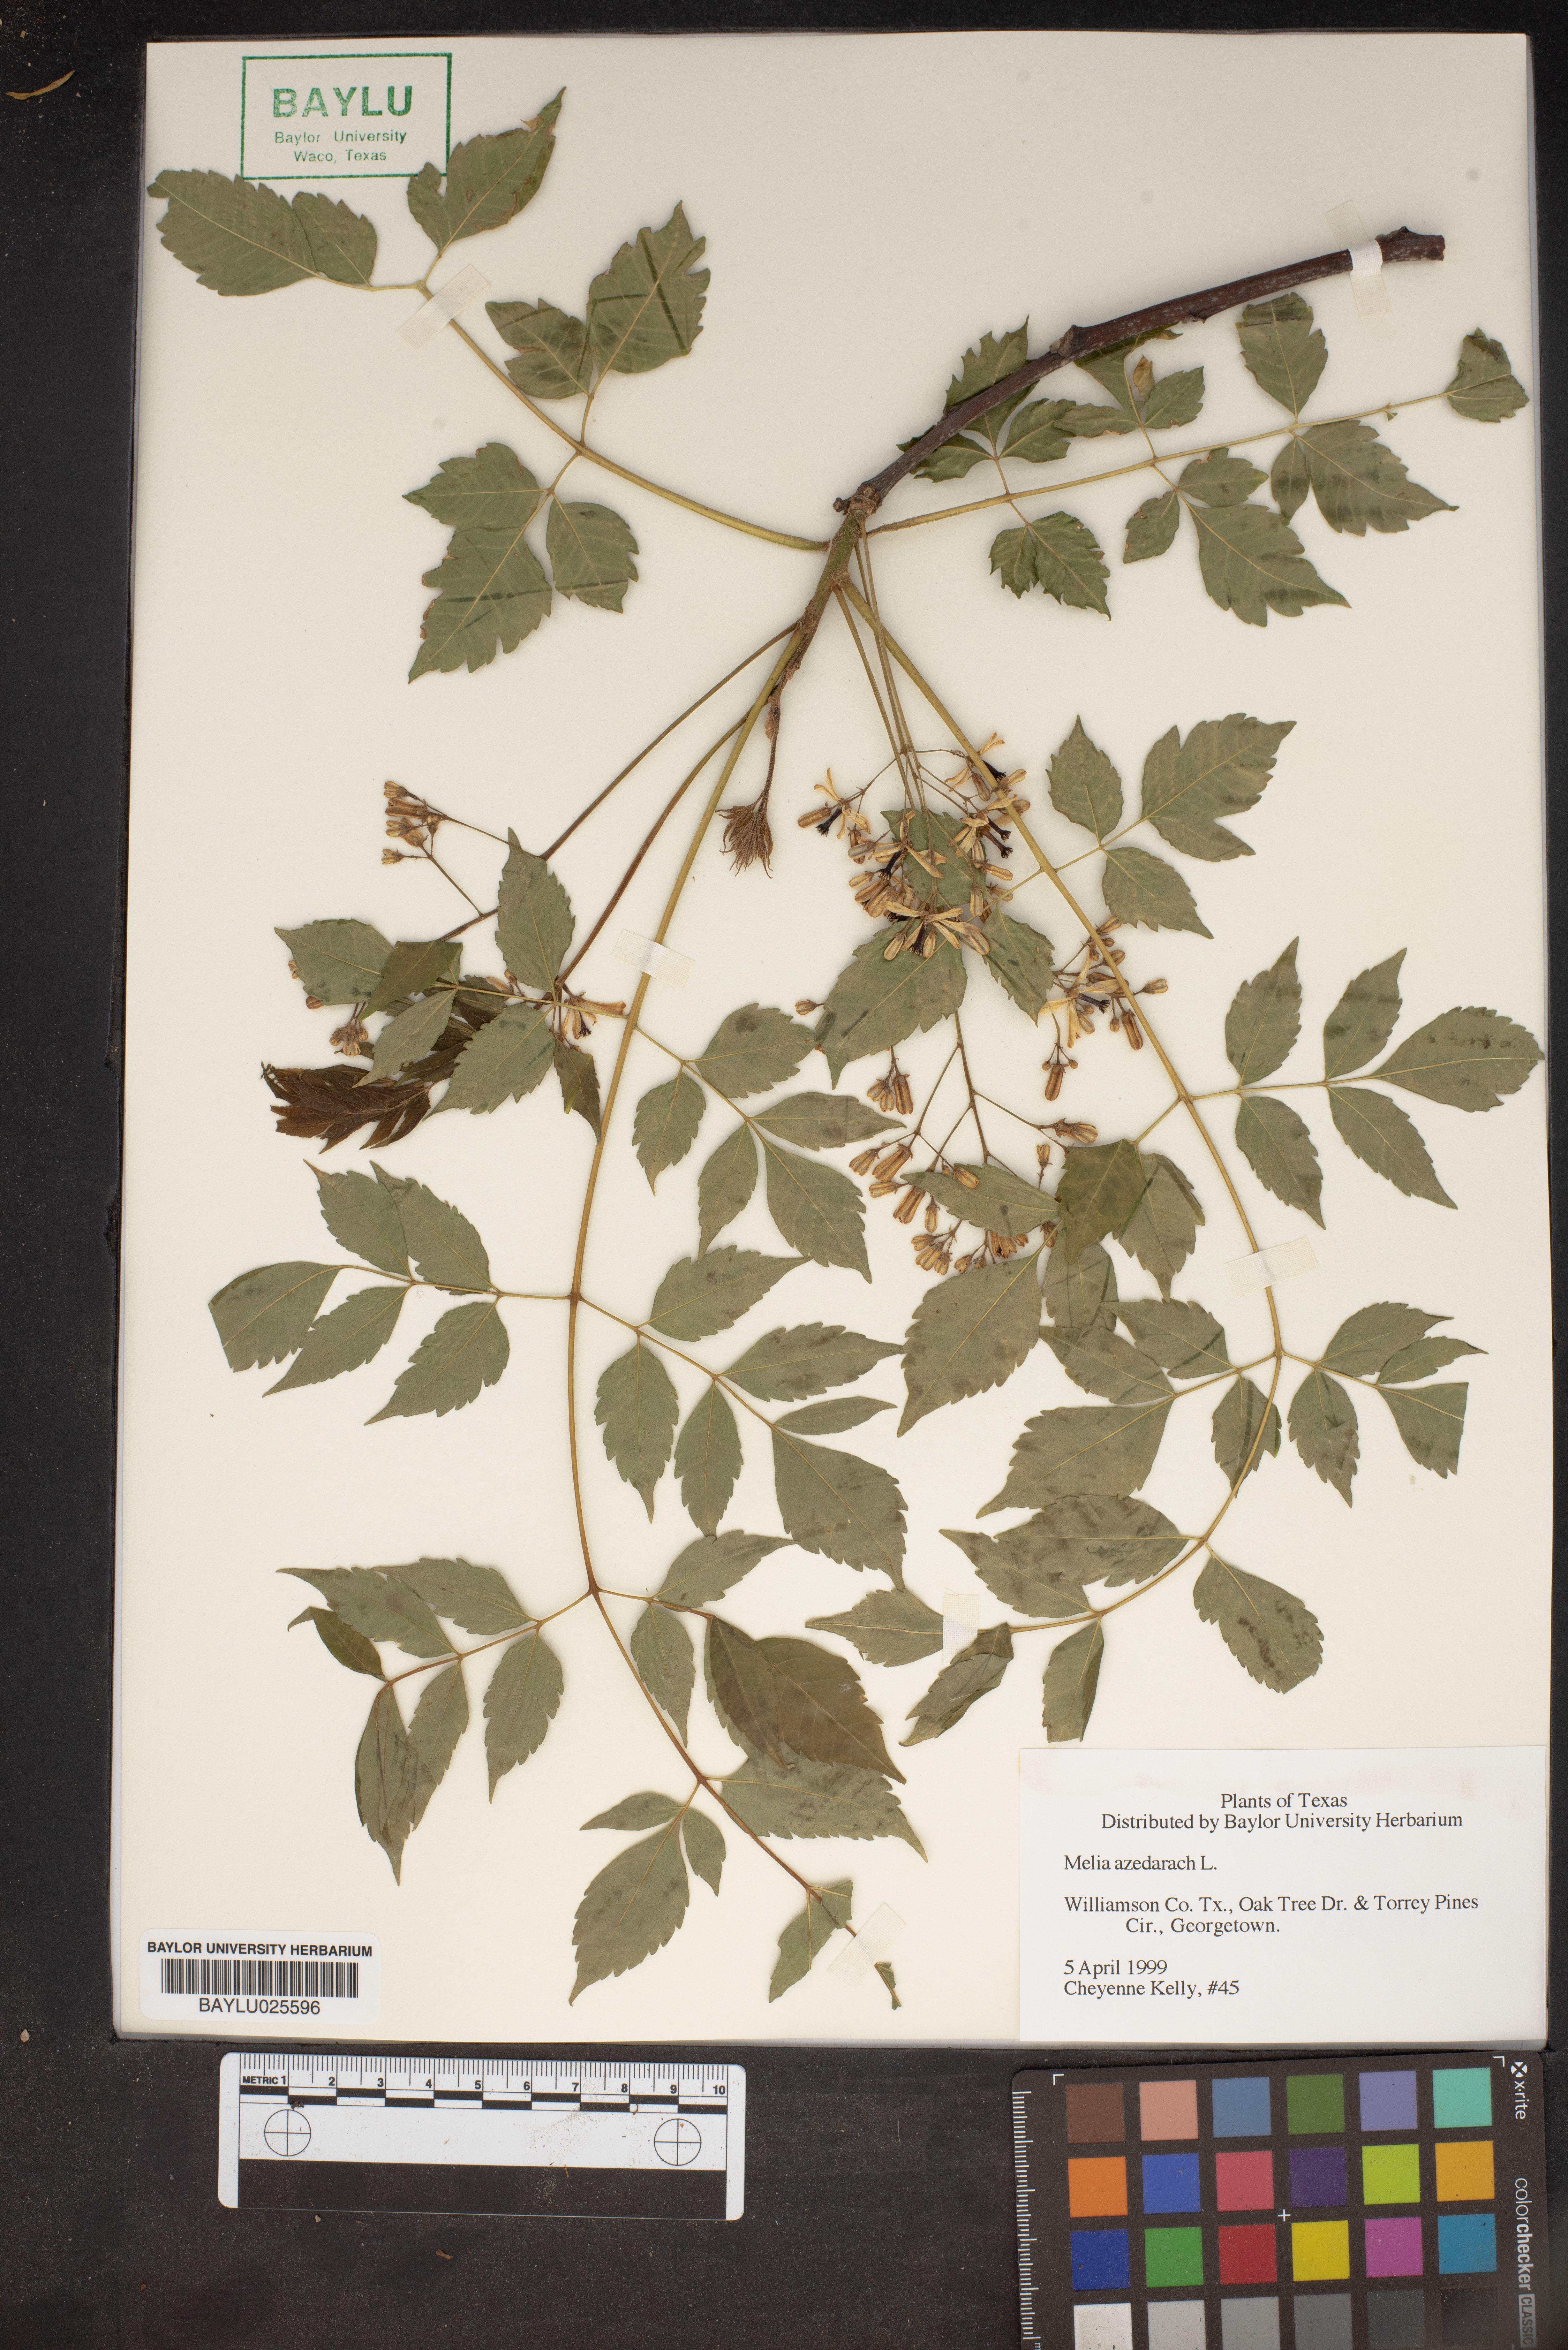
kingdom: Plantae
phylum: Tracheophyta
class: Magnoliopsida
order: Sapindales
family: Meliaceae
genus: Melia
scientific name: Melia azedarach
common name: Chinaberrytree
